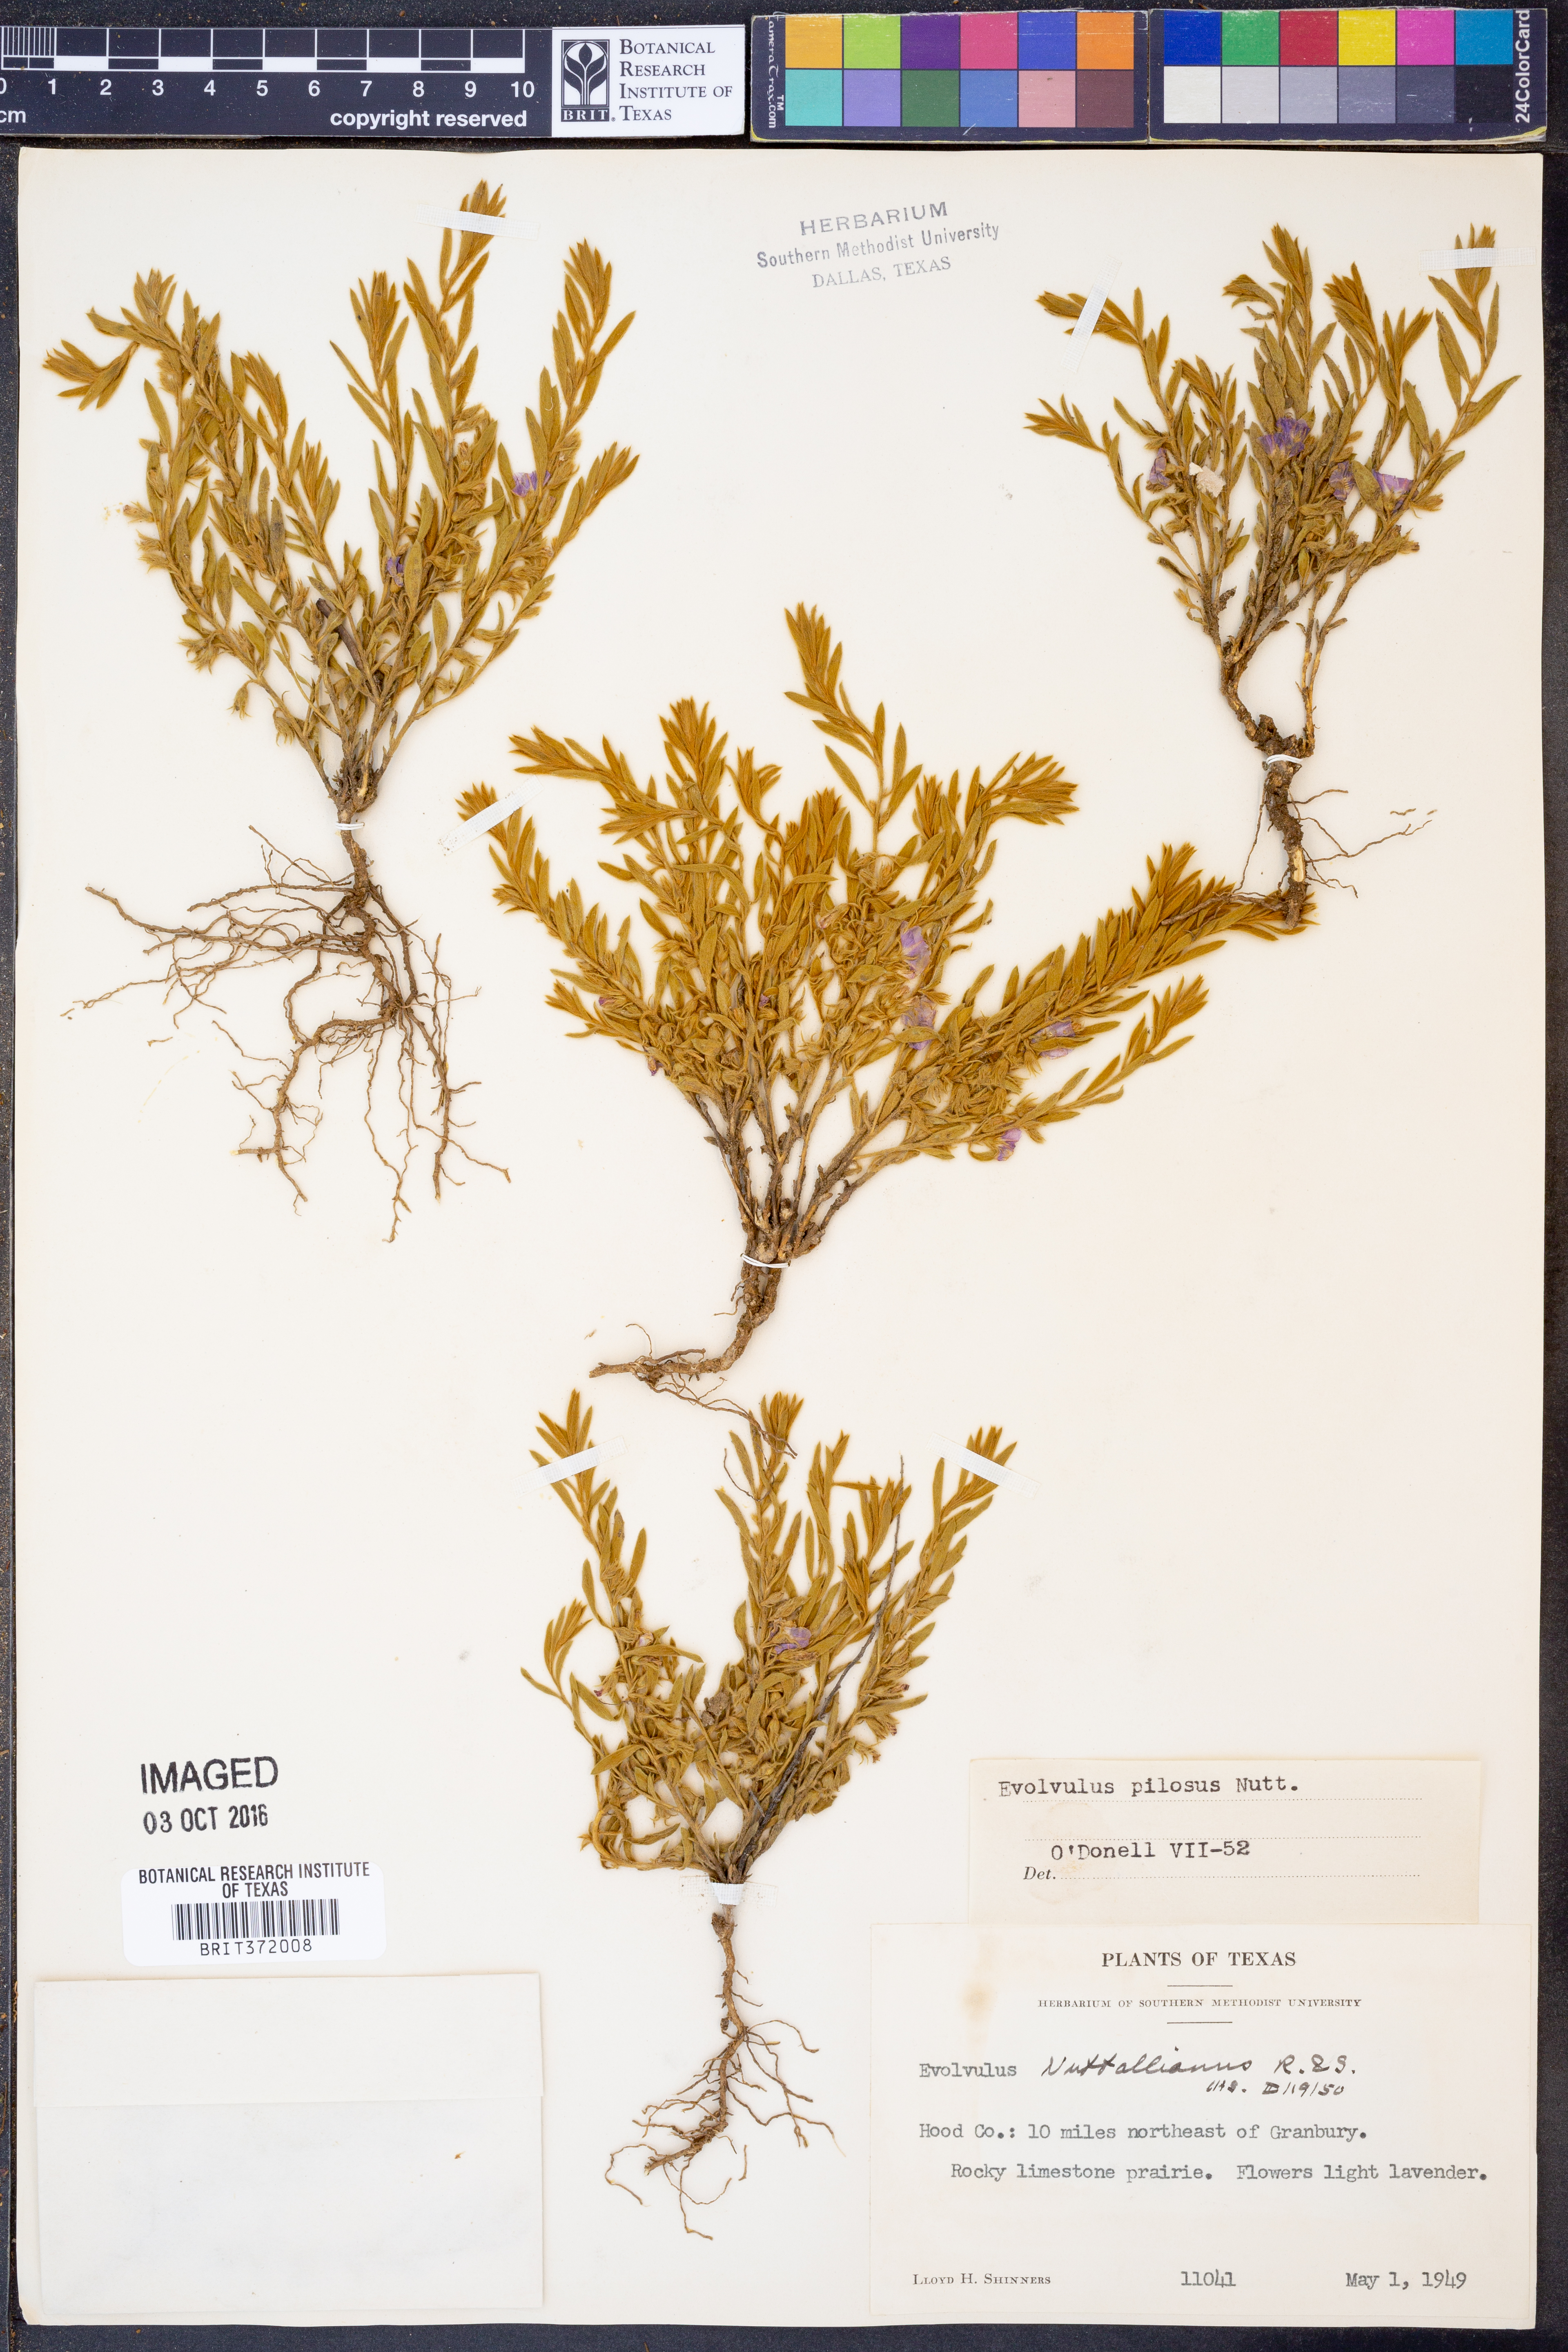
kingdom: Plantae
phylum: Tracheophyta
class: Magnoliopsida
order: Solanales
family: Convolvulaceae
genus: Evolvulus
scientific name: Evolvulus nuttallianus
